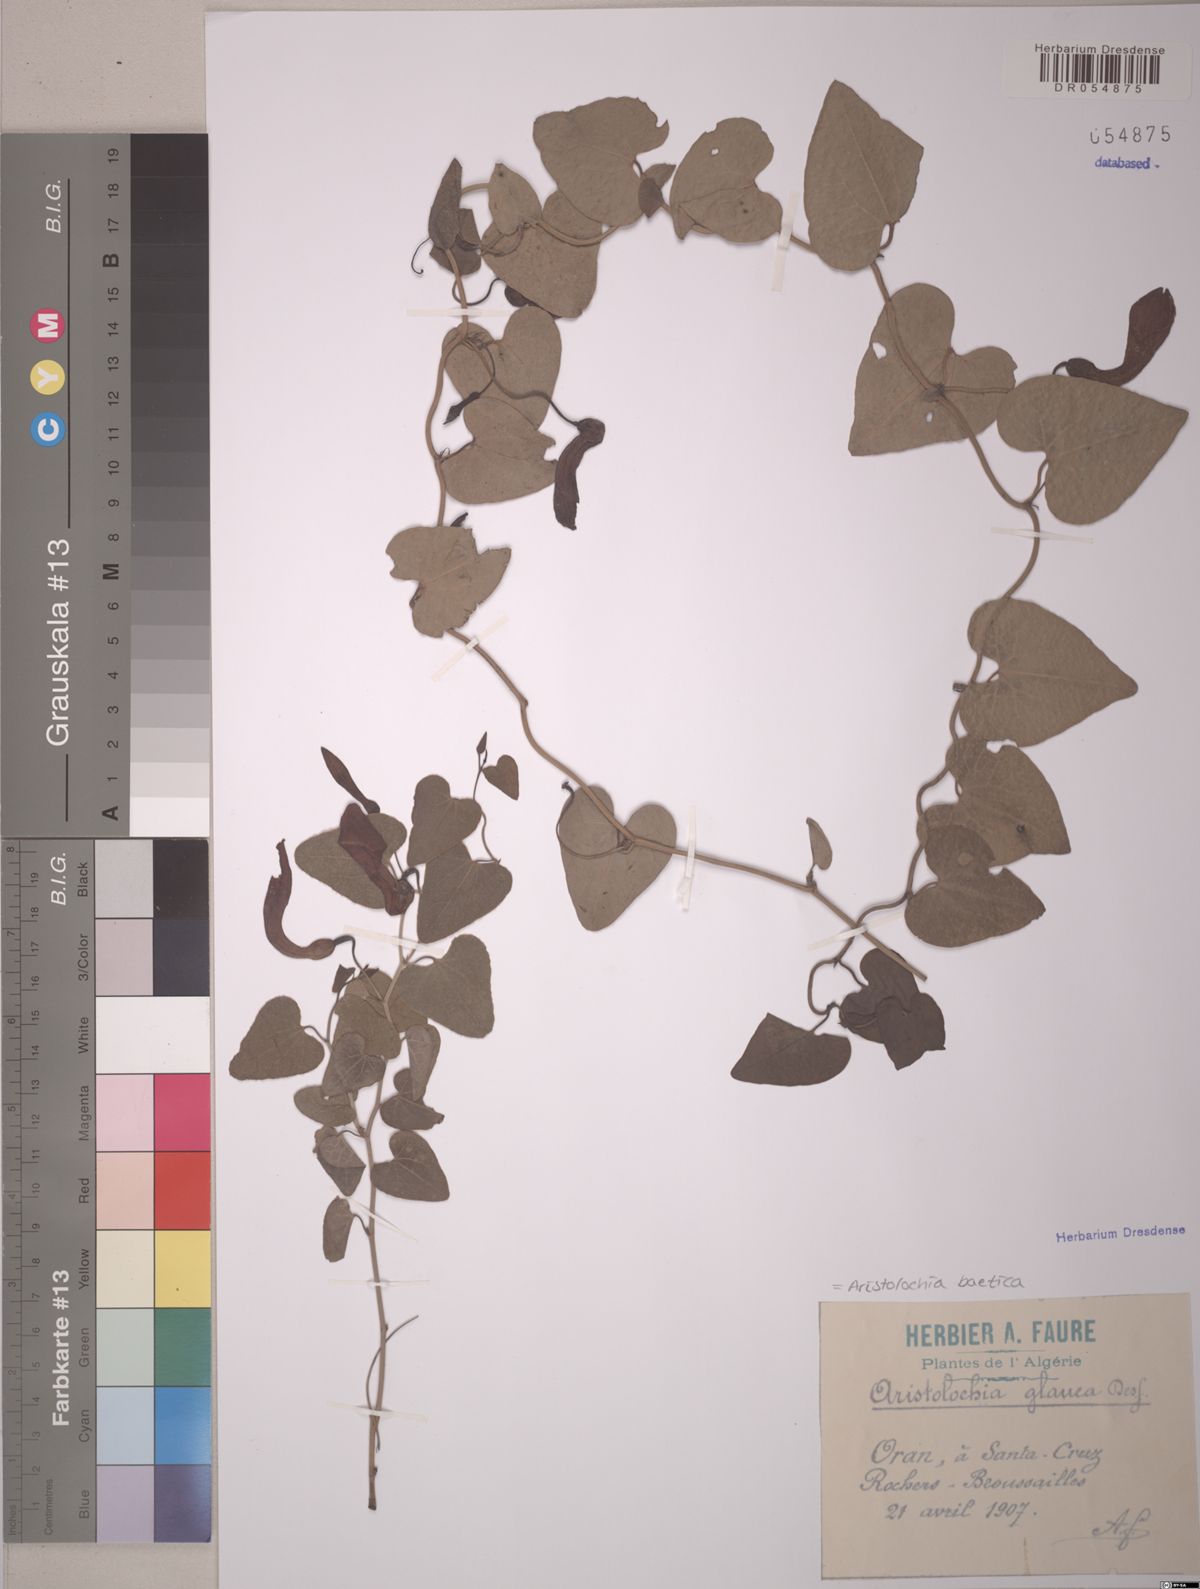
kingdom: Plantae
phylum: Tracheophyta
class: Magnoliopsida
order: Piperales
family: Aristolochiaceae
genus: Aristolochia
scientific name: Aristolochia baetica
